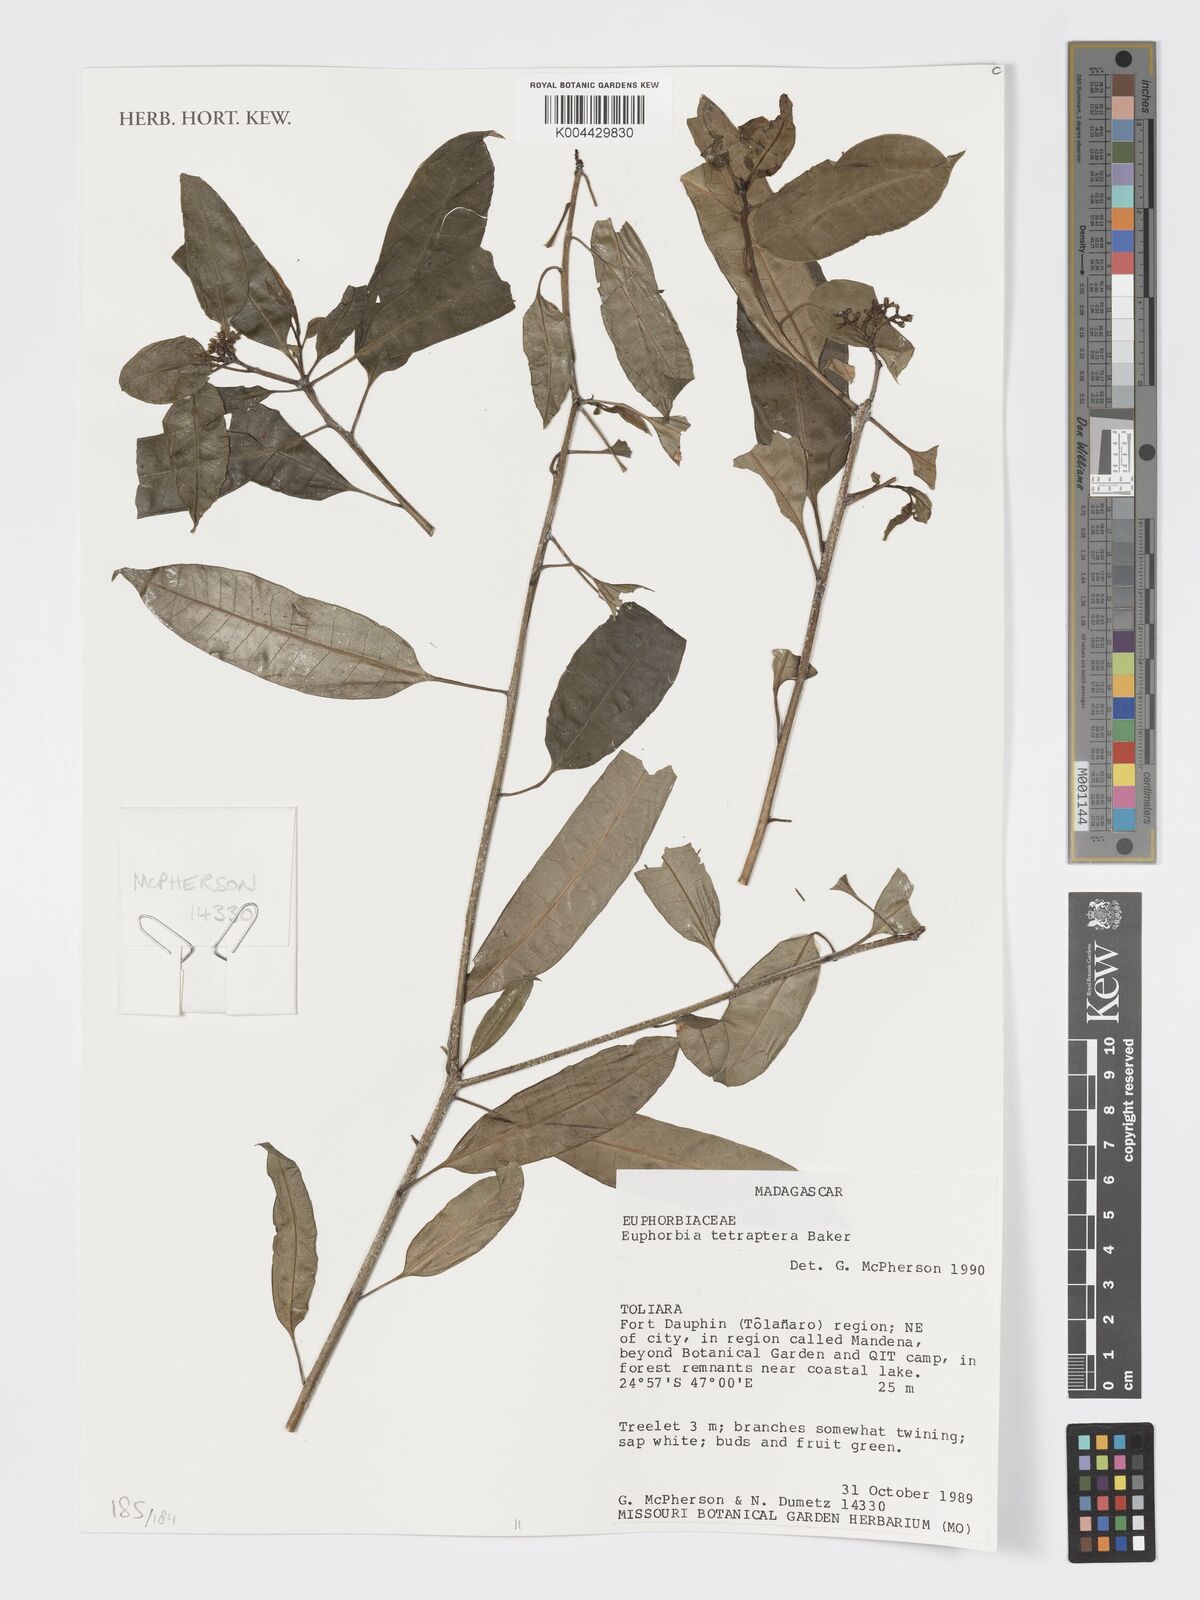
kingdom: Plantae
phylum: Tracheophyta
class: Magnoliopsida
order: Malpighiales
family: Euphorbiaceae
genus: Euphorbia
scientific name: Euphorbia tetraptera
